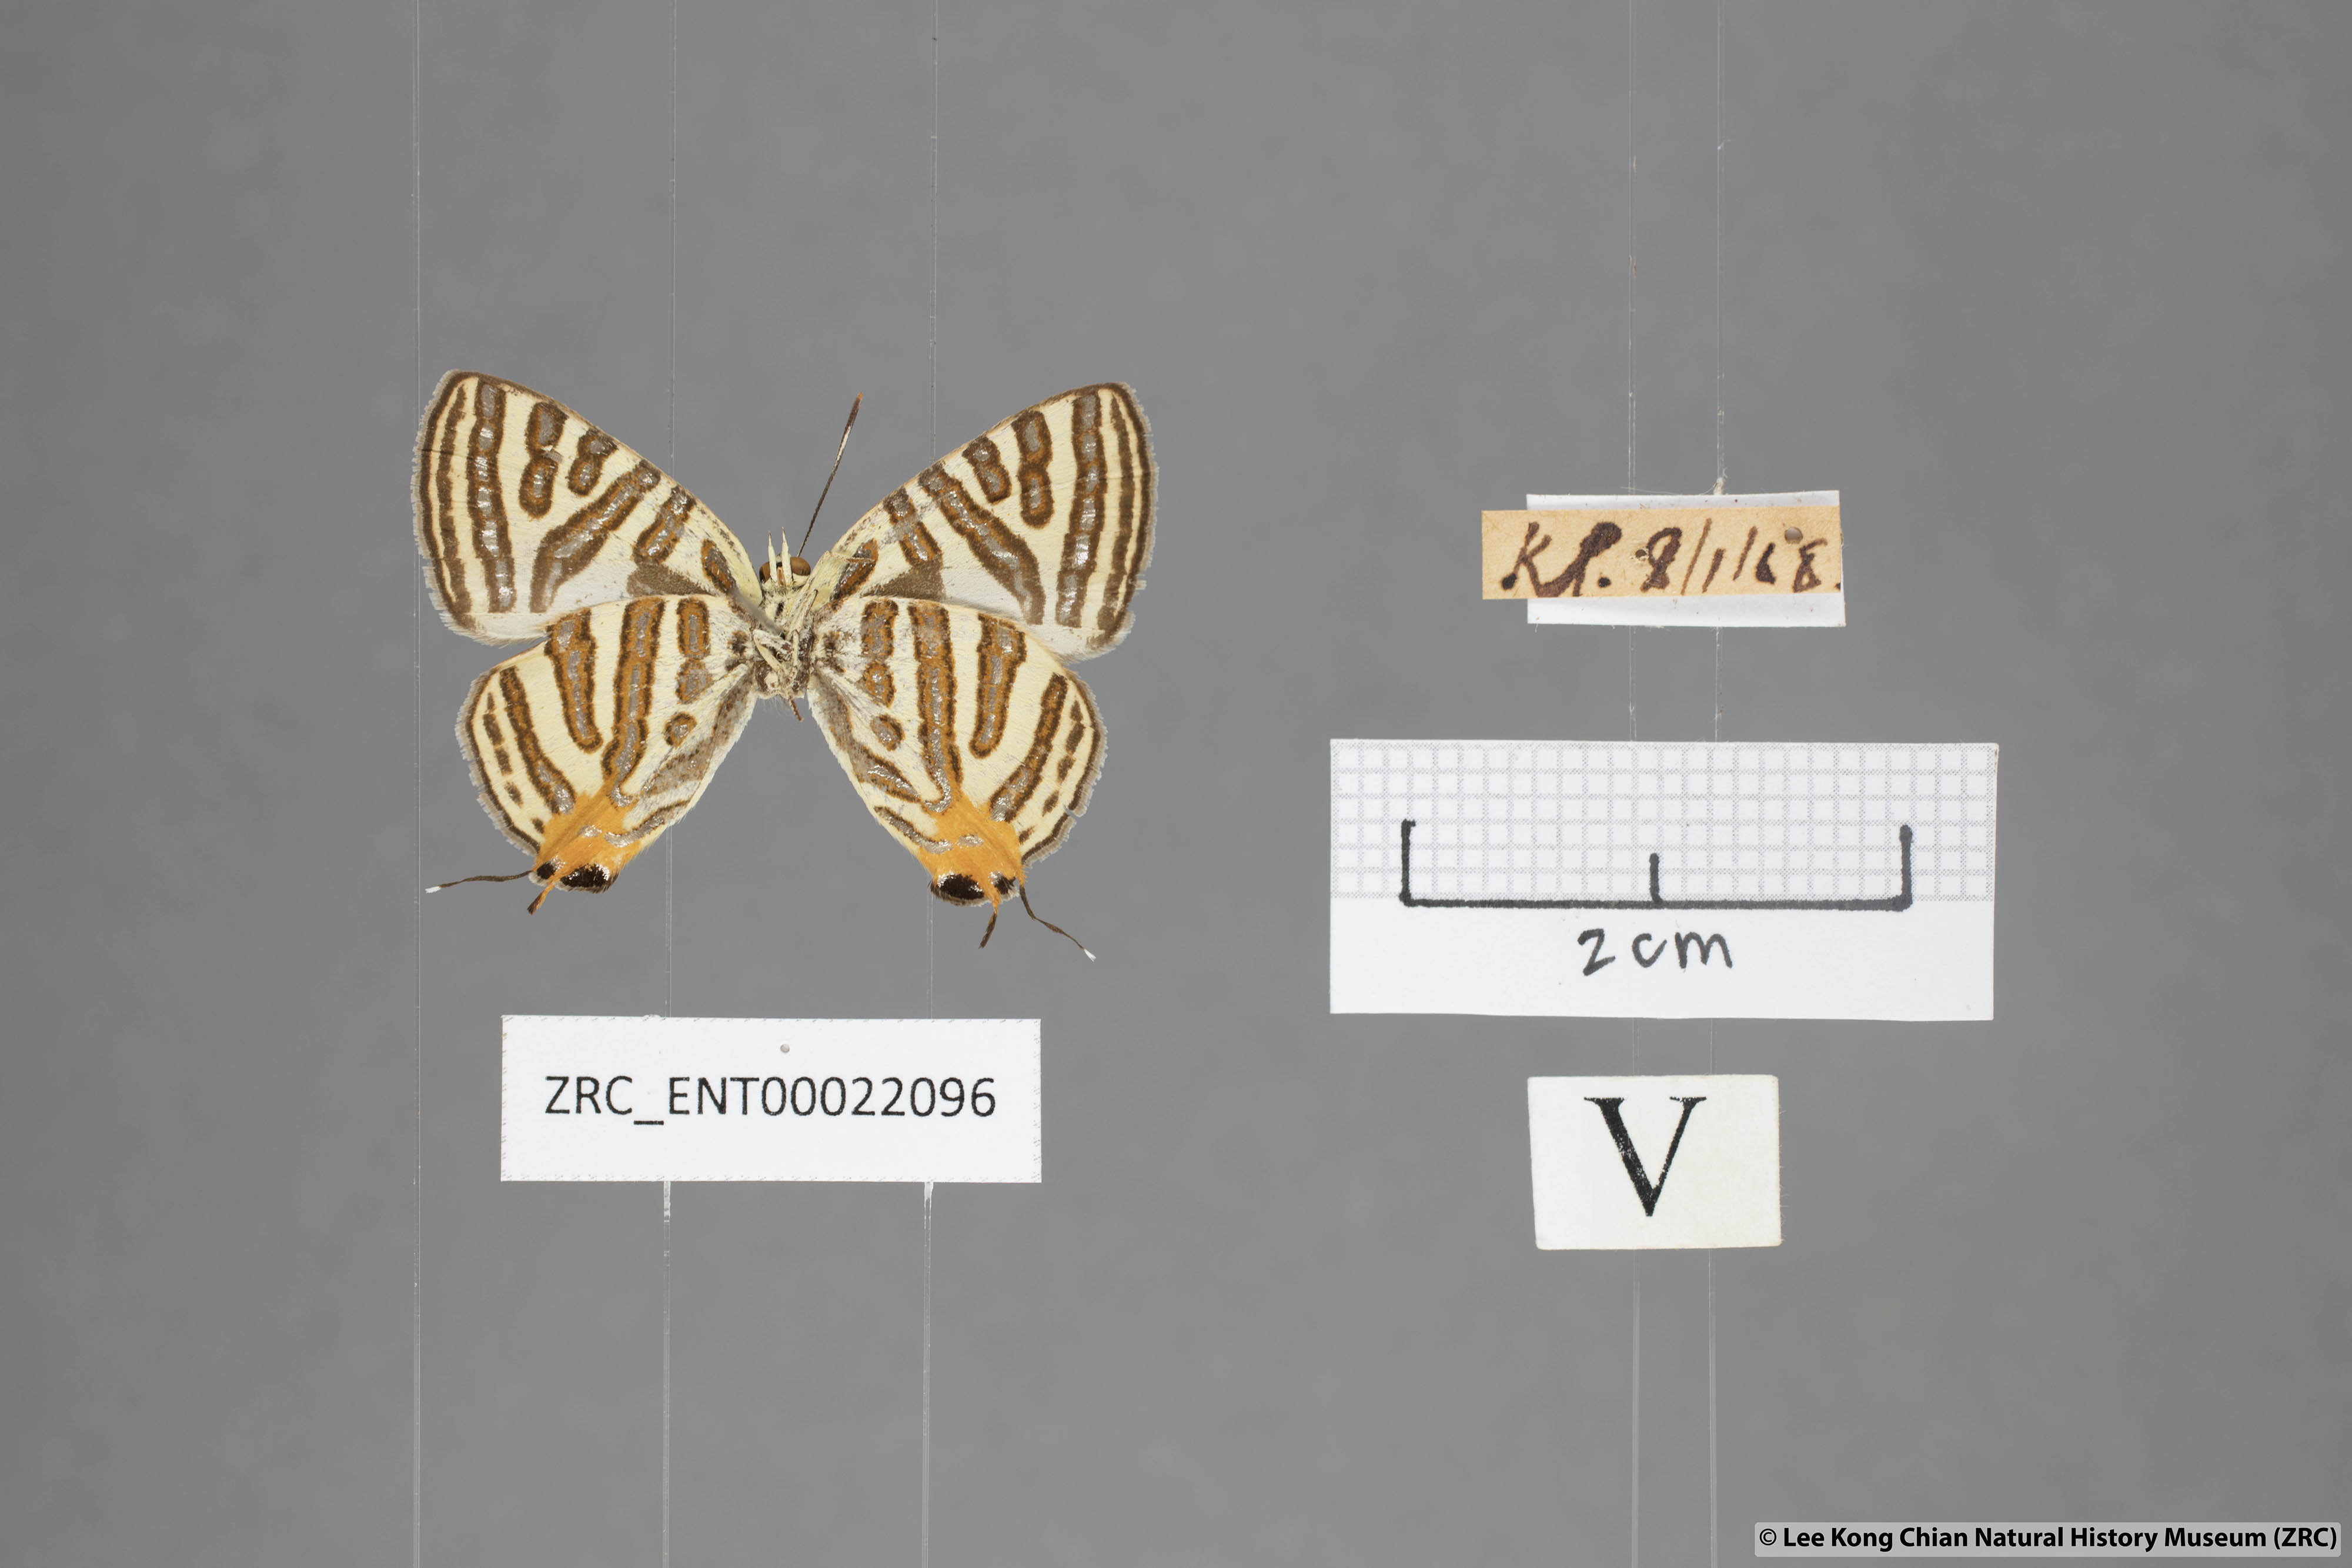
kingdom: Animalia
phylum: Arthropoda
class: Insecta
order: Lepidoptera
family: Lycaenidae
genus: Spindasis
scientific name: Spindasis syama
